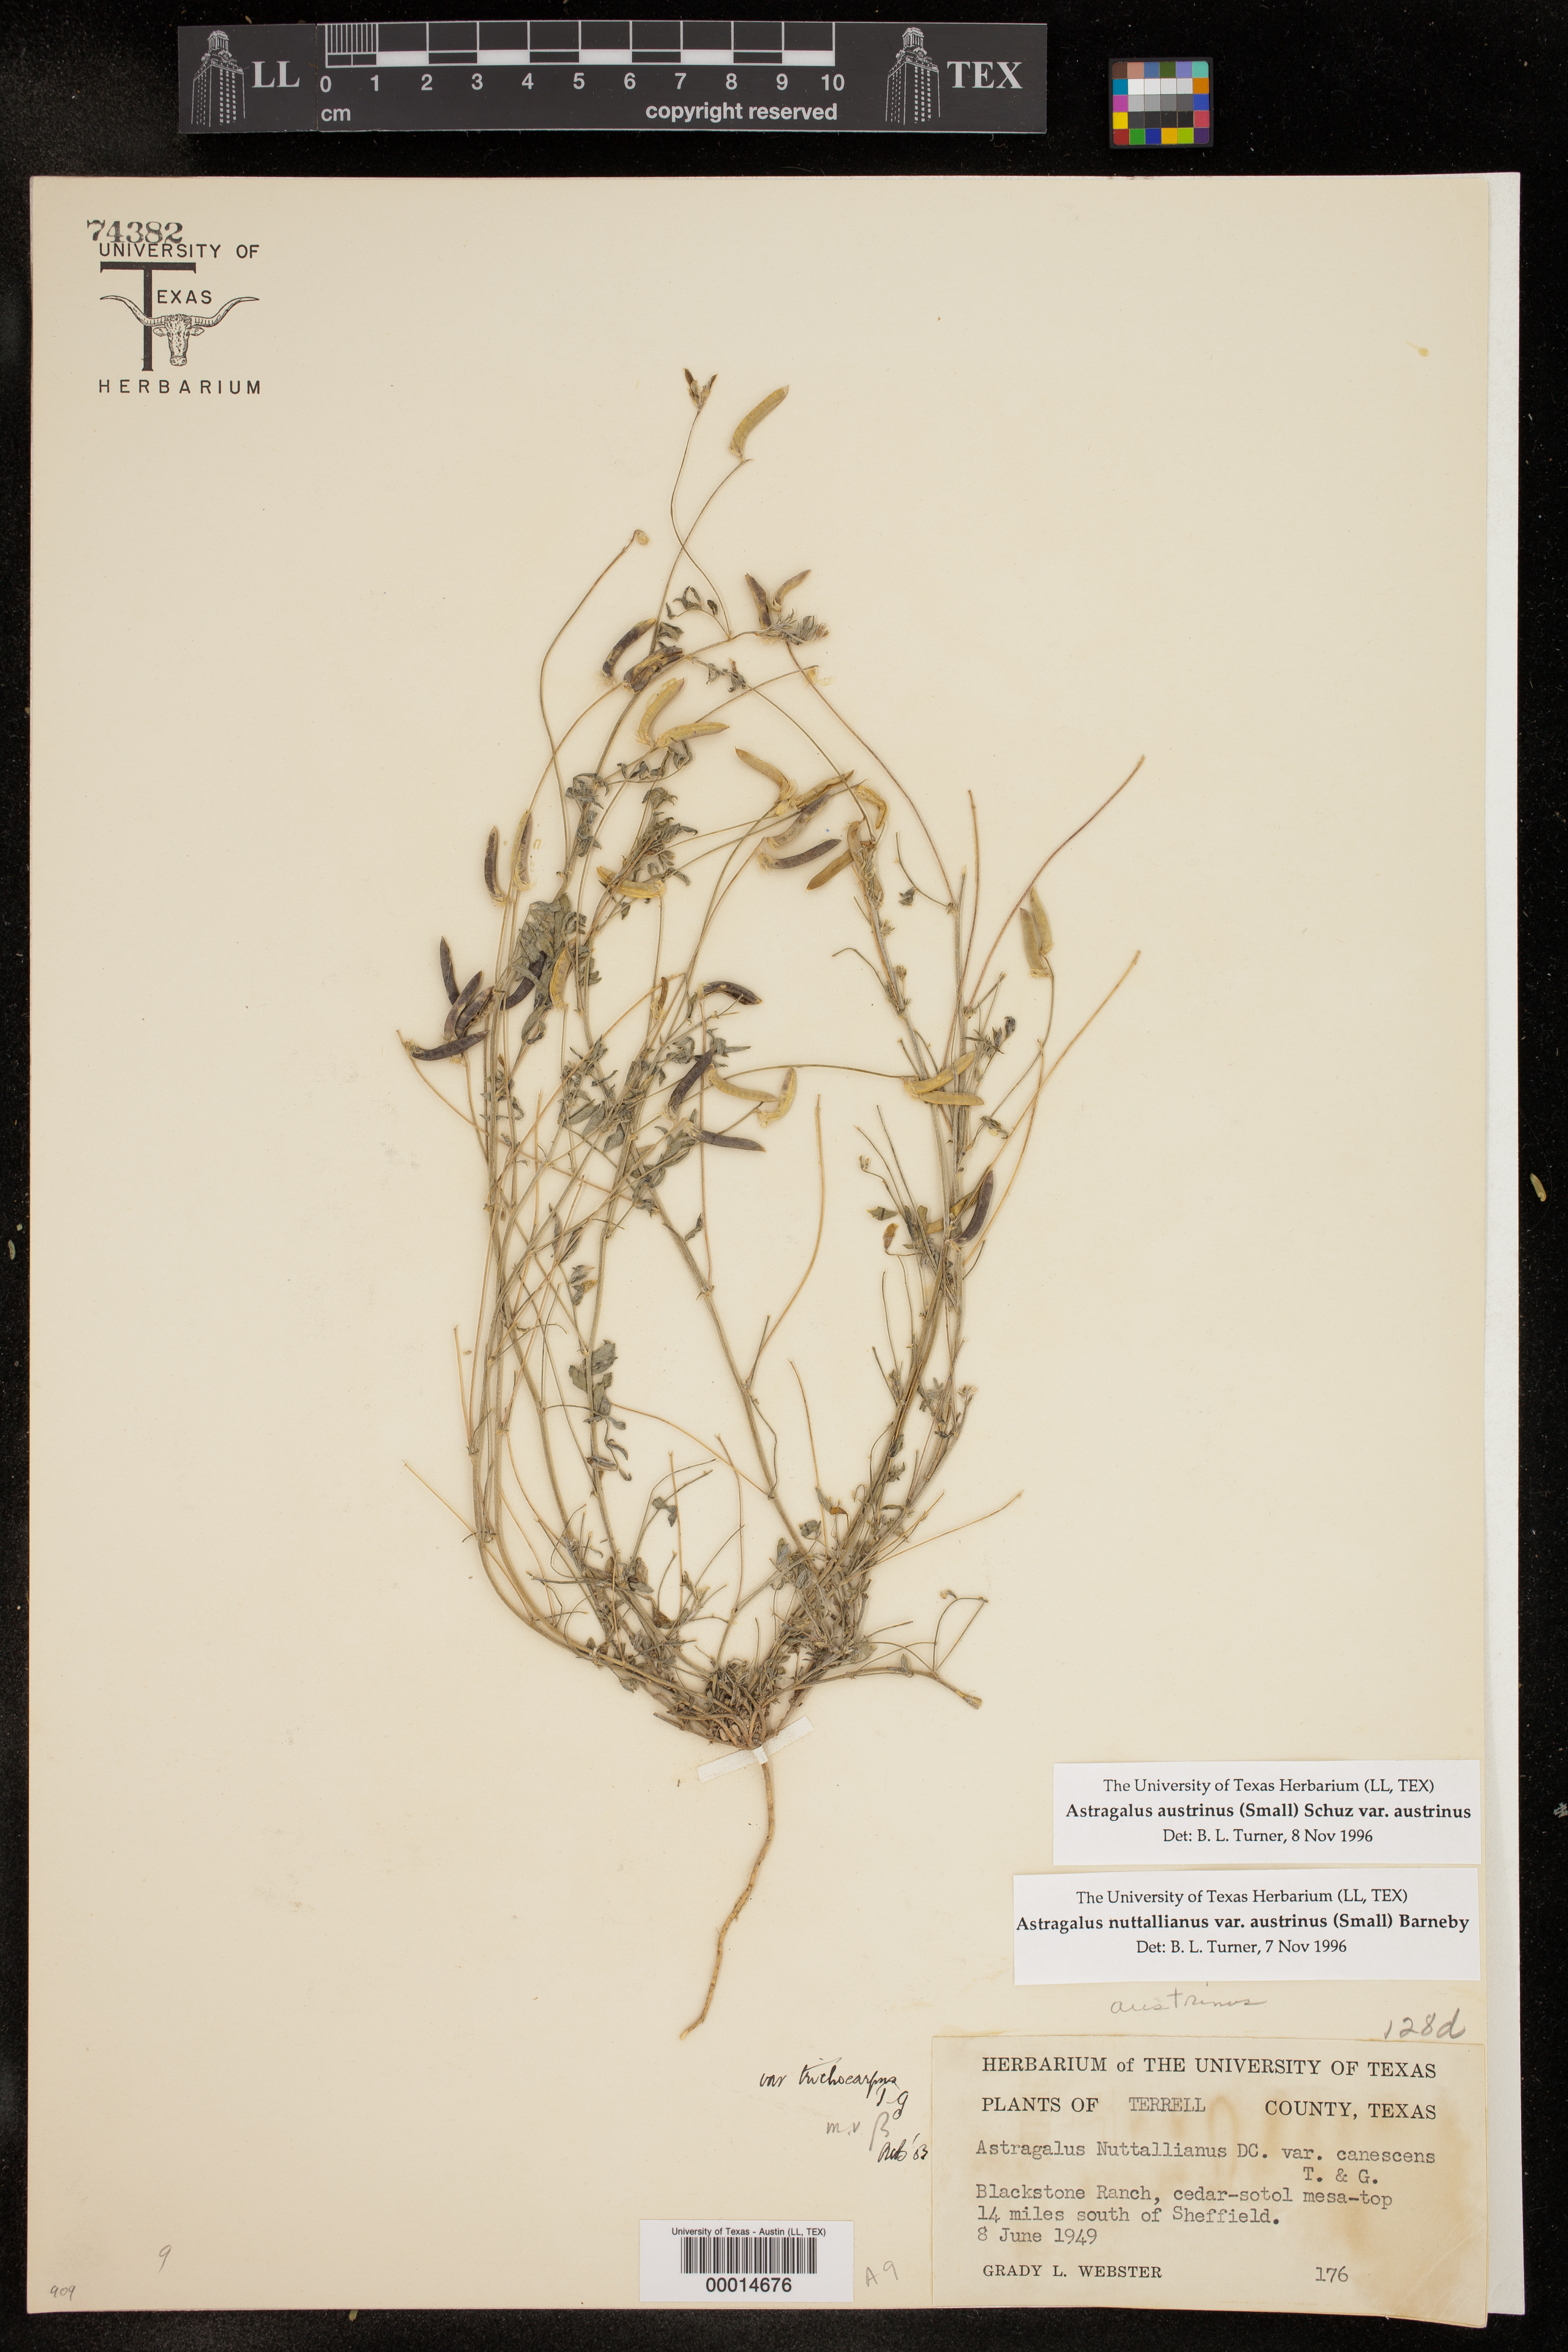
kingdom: Plantae
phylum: Tracheophyta
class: Magnoliopsida
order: Fabales
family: Fabaceae
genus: Astragalus
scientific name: Astragalus nuttallianus
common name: Smallflowered milkvetch
